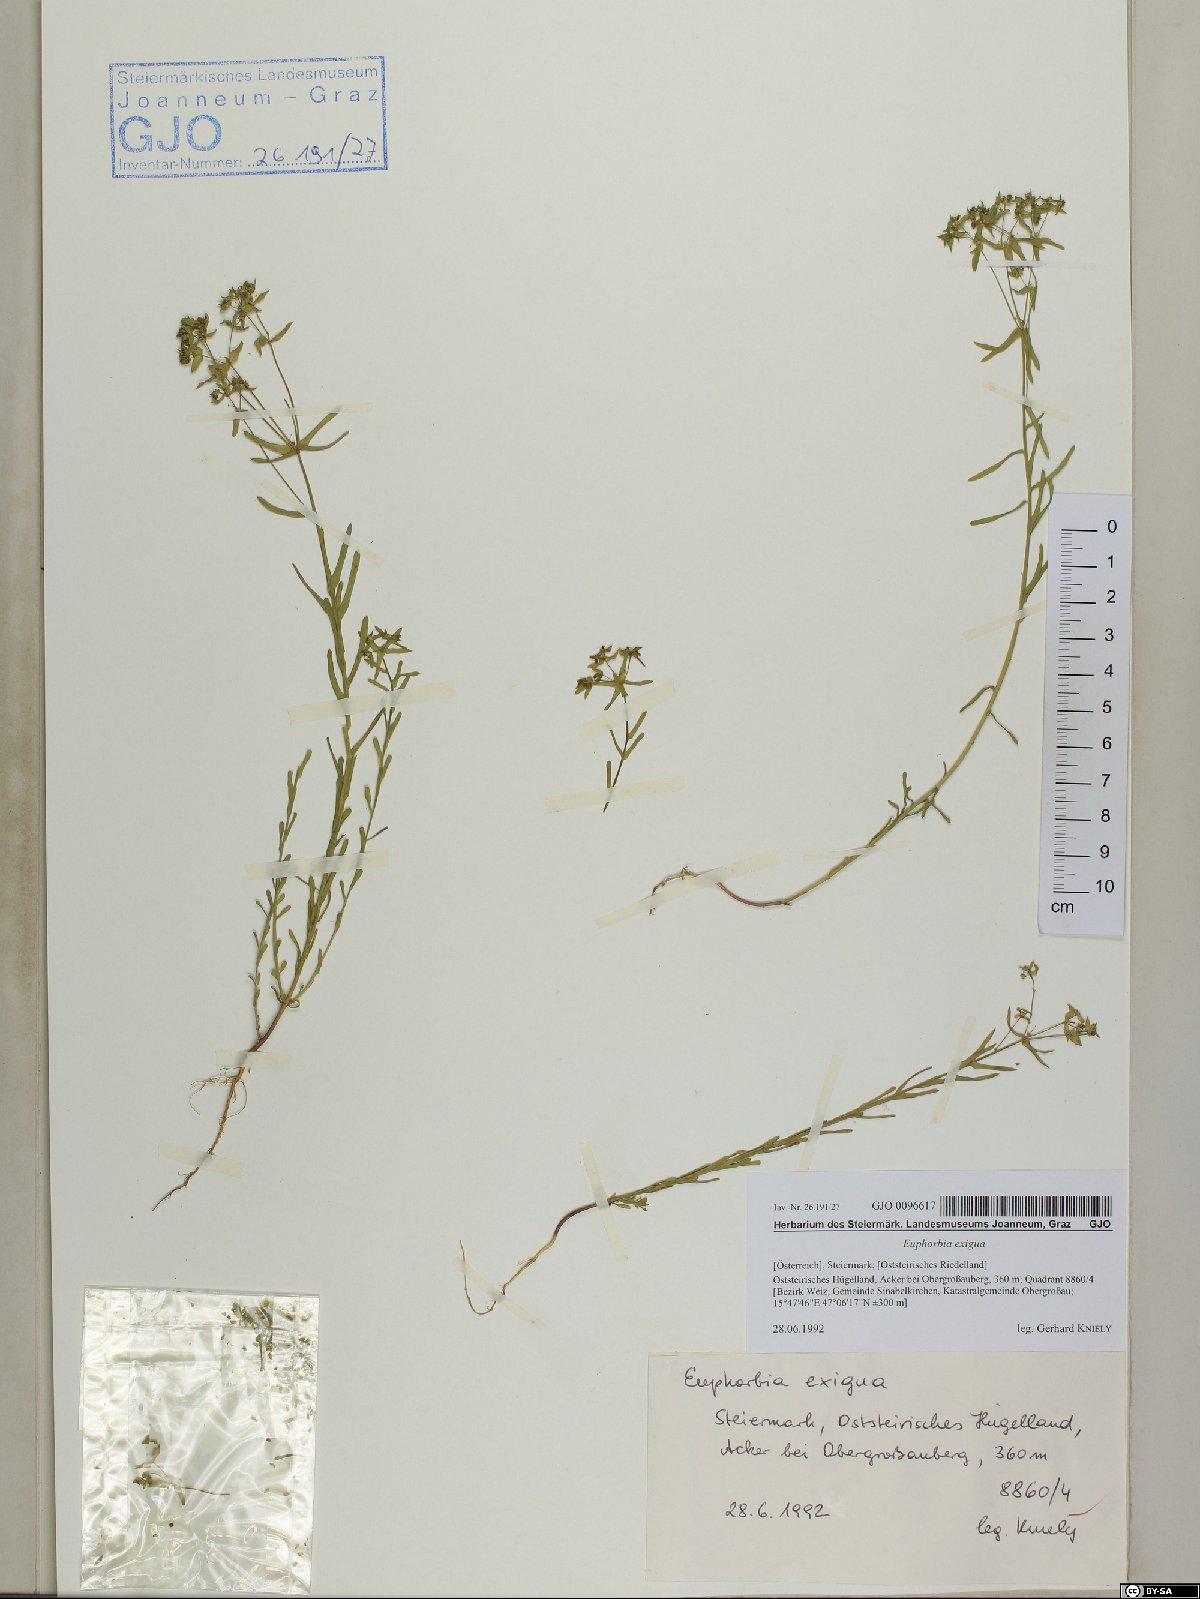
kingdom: Plantae
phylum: Tracheophyta
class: Magnoliopsida
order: Malpighiales
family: Euphorbiaceae
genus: Euphorbia
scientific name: Euphorbia exigua
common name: Dwarf spurge
